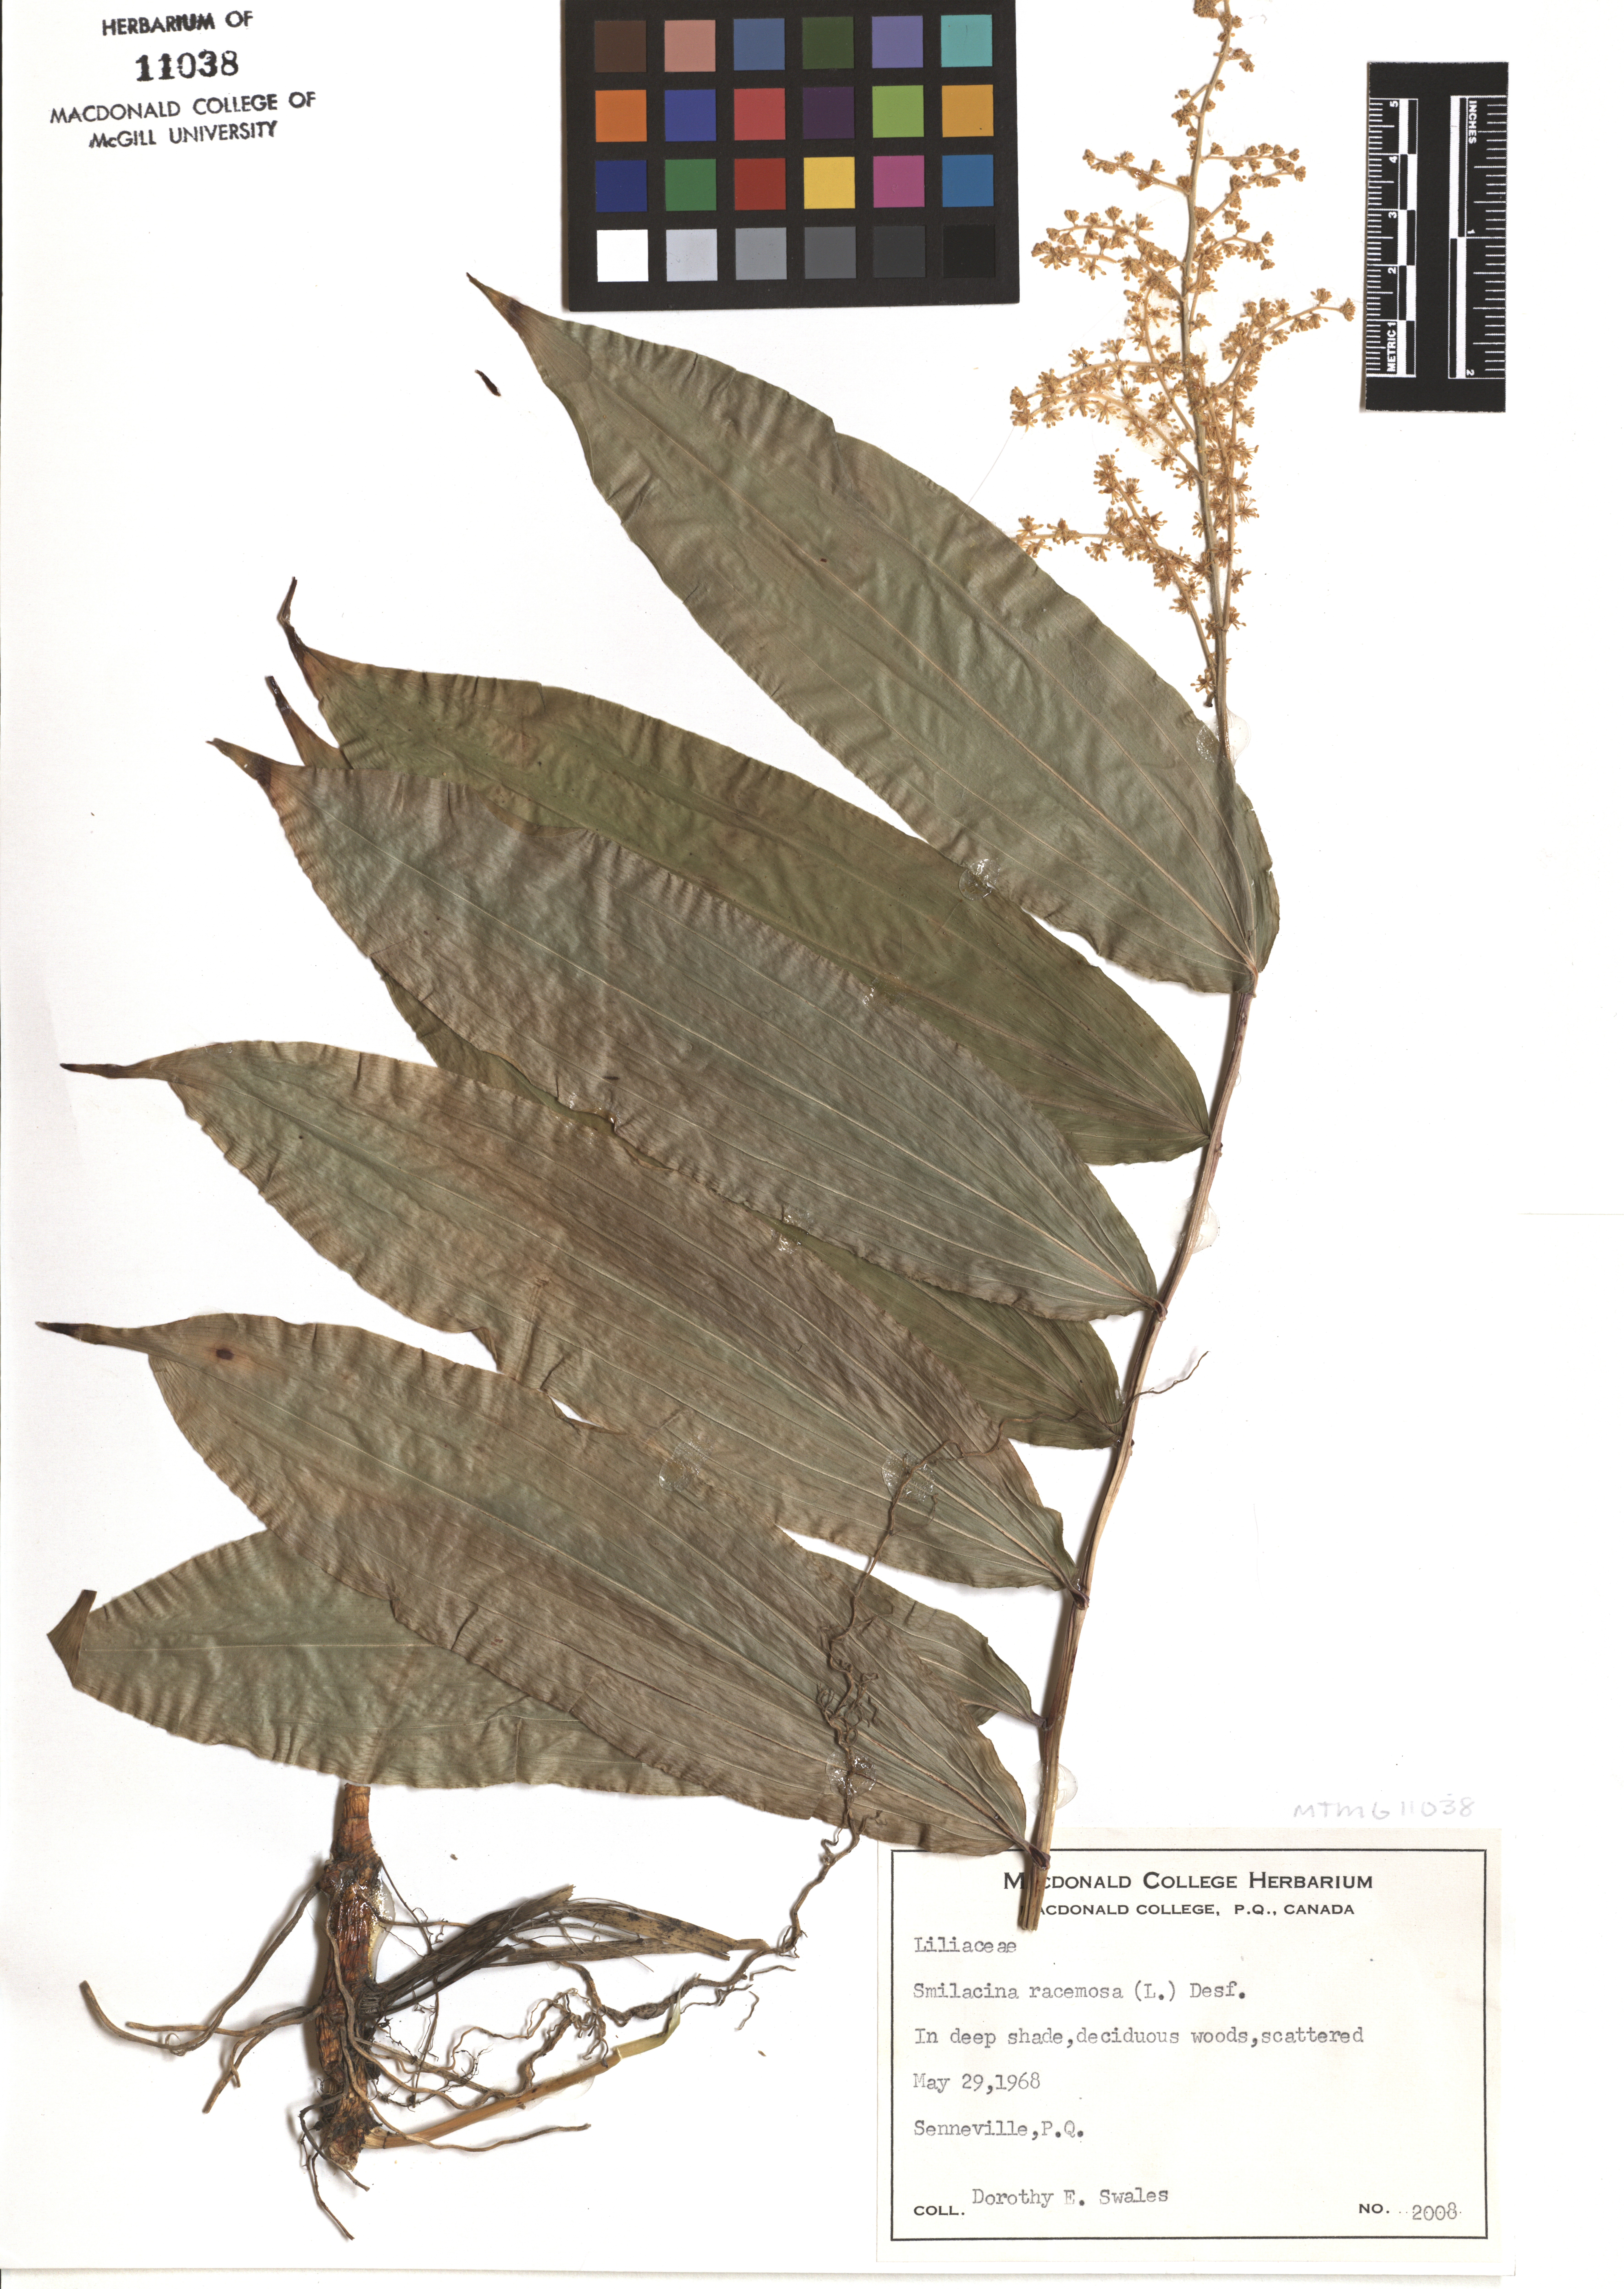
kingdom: Plantae
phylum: Tracheophyta
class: Liliopsida
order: Asparagales
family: Asparagaceae
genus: Maianthemum
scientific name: Maianthemum racemosum
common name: False spikenard
